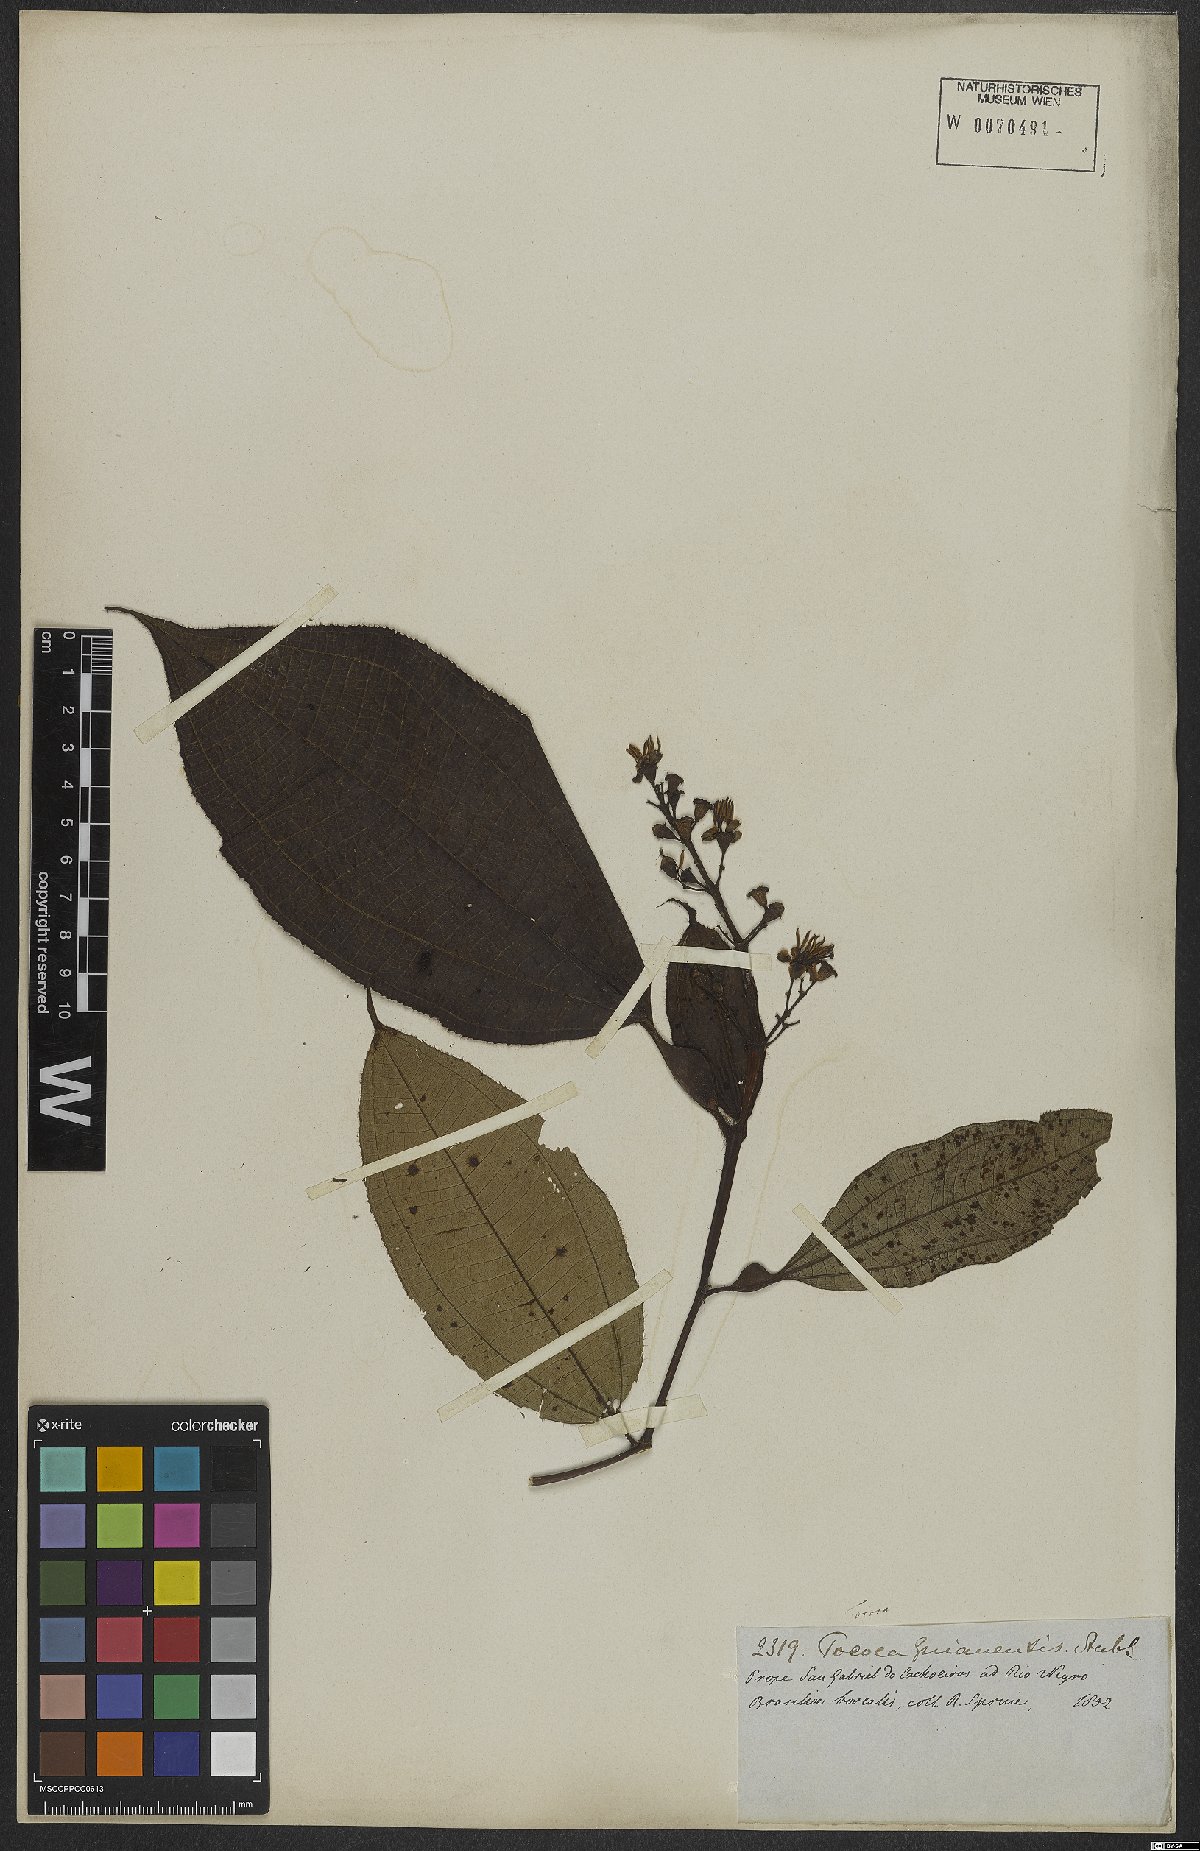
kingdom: Plantae
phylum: Tracheophyta
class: Magnoliopsida
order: Myrtales
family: Melastomataceae
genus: Miconia
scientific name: Miconia tococa
